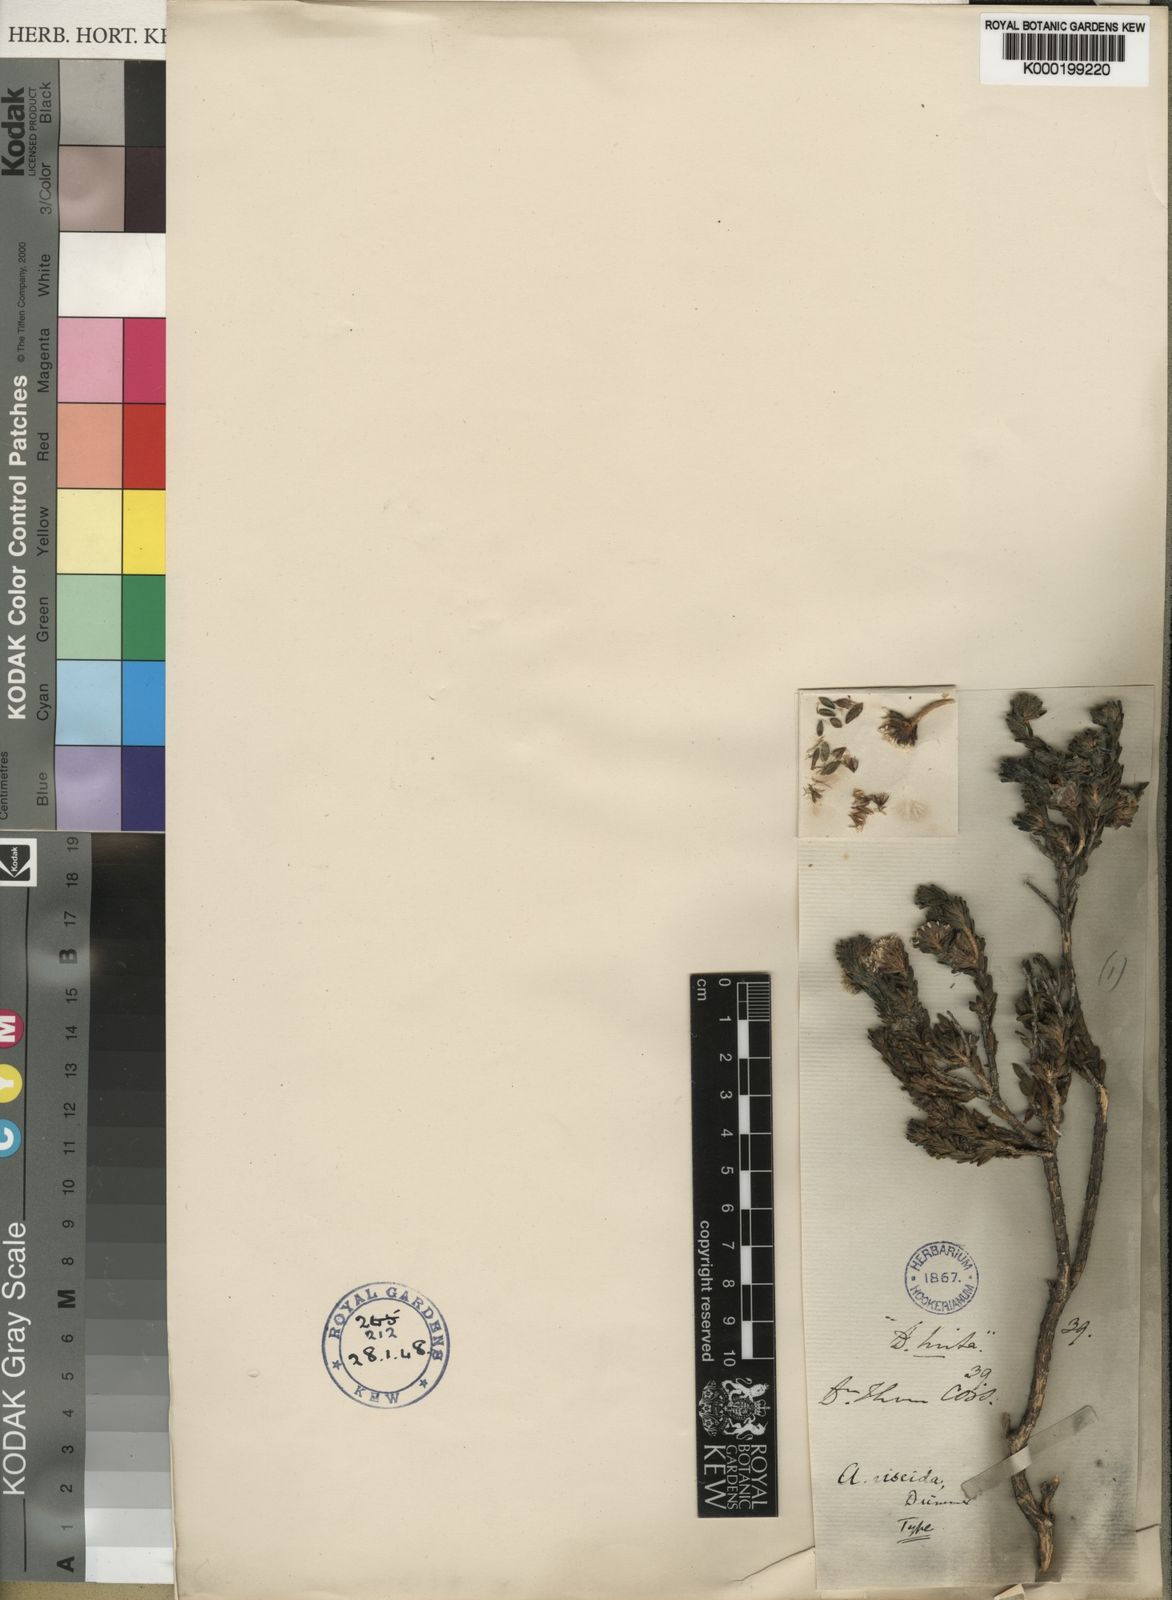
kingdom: Plantae
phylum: Tracheophyta
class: Magnoliopsida
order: Sapindales
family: Rutaceae
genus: Agathosma
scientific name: Agathosma eriantha
